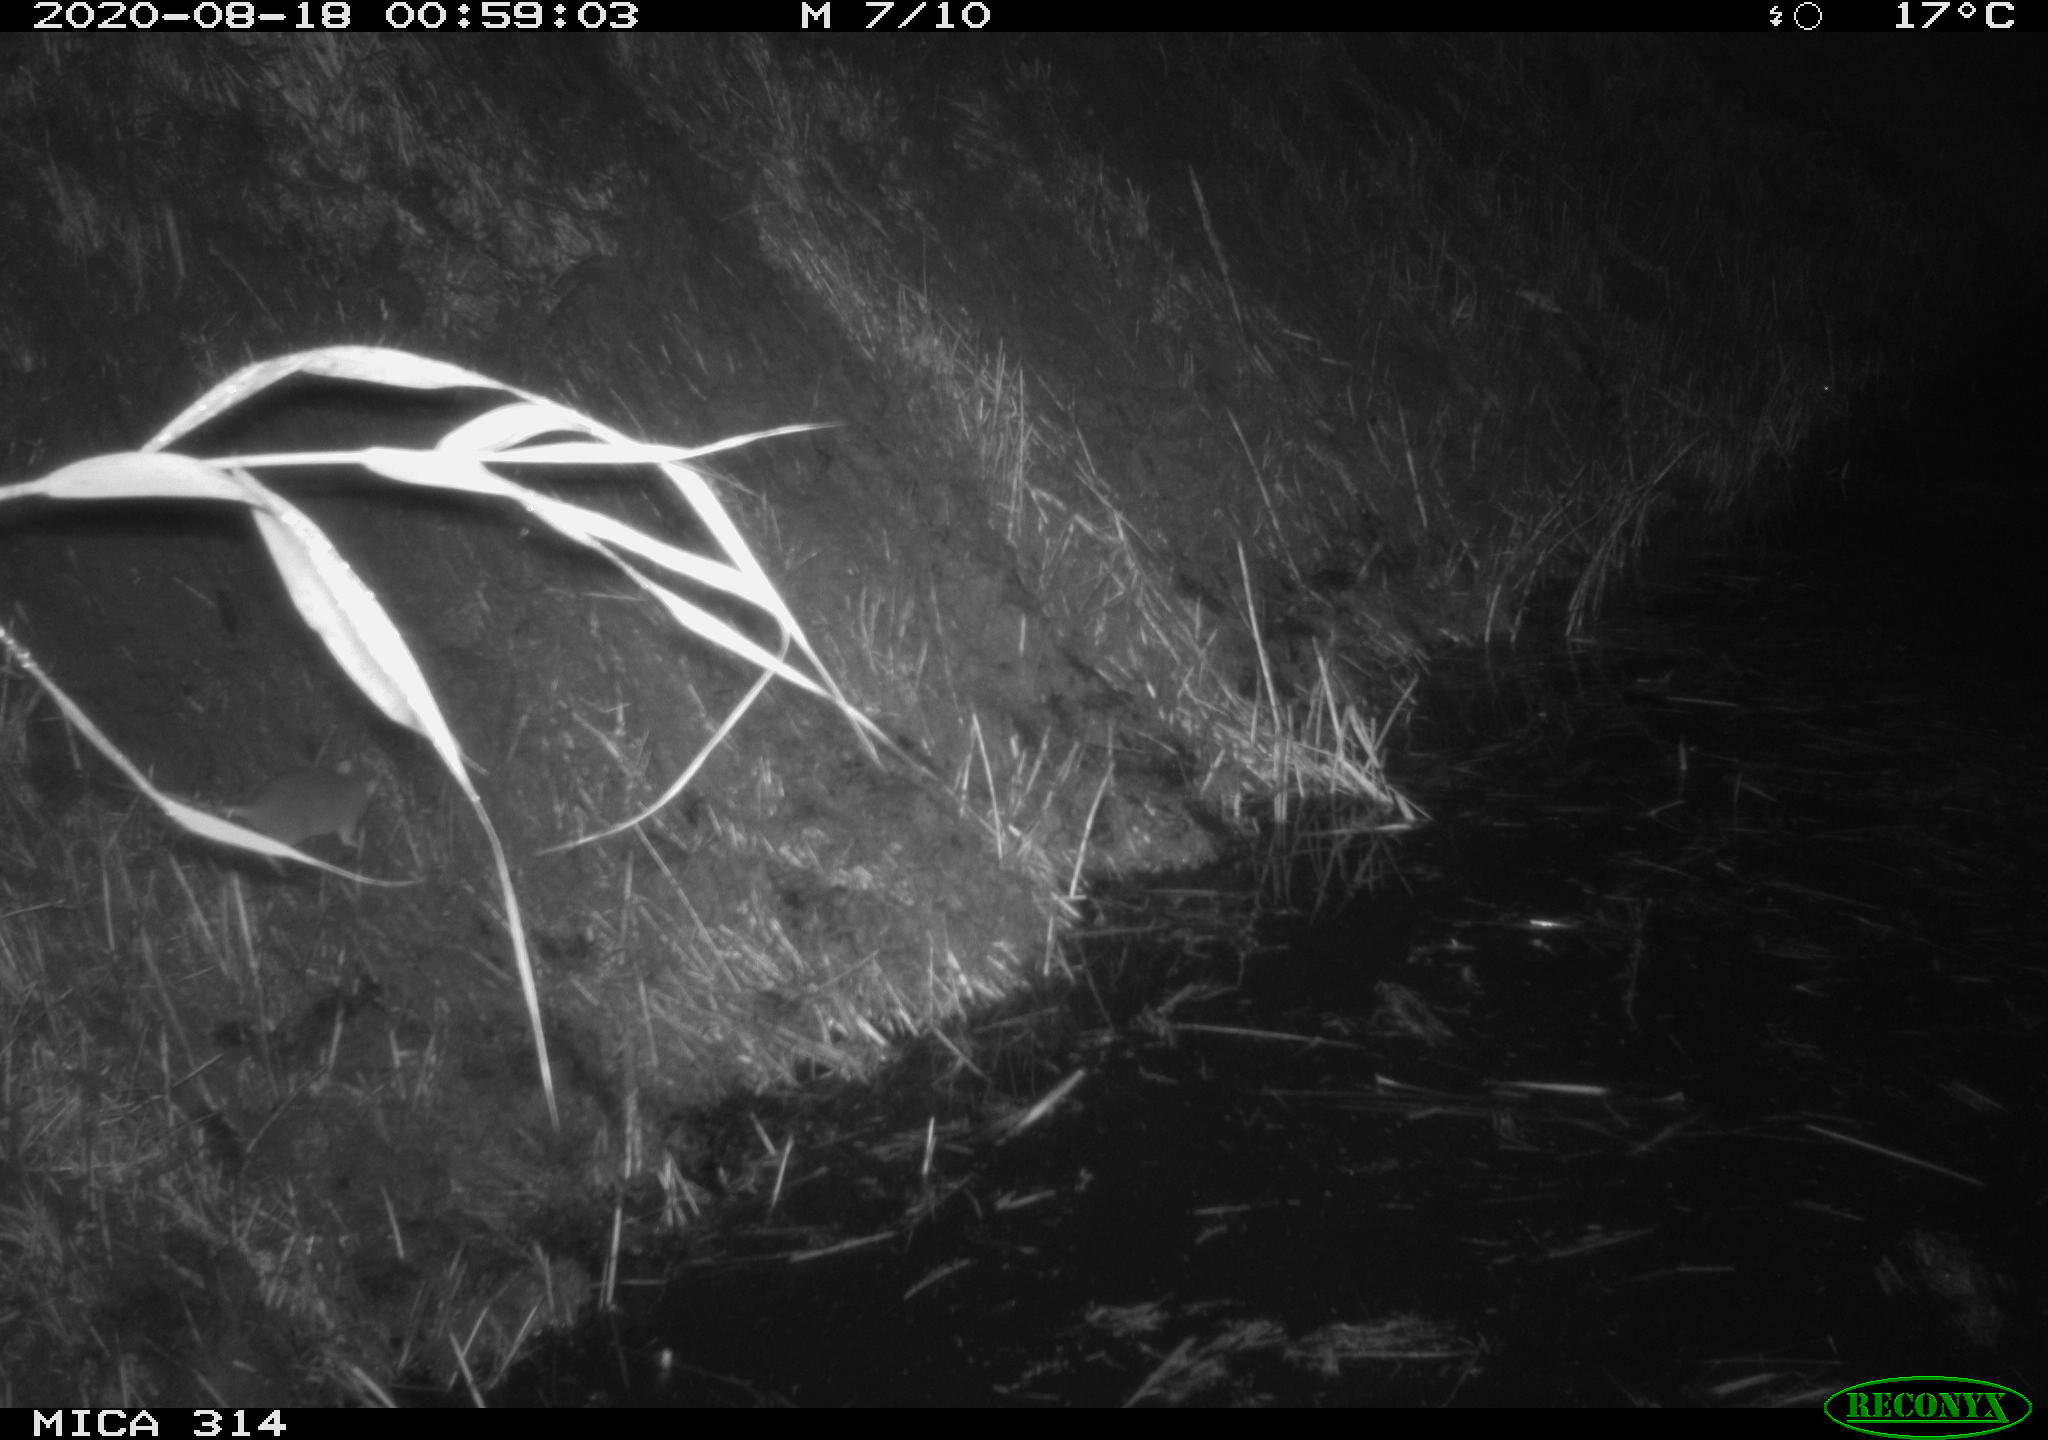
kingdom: Animalia
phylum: Chordata
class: Mammalia
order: Rodentia
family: Muridae
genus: Rattus
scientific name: Rattus norvegicus
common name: Brown rat
